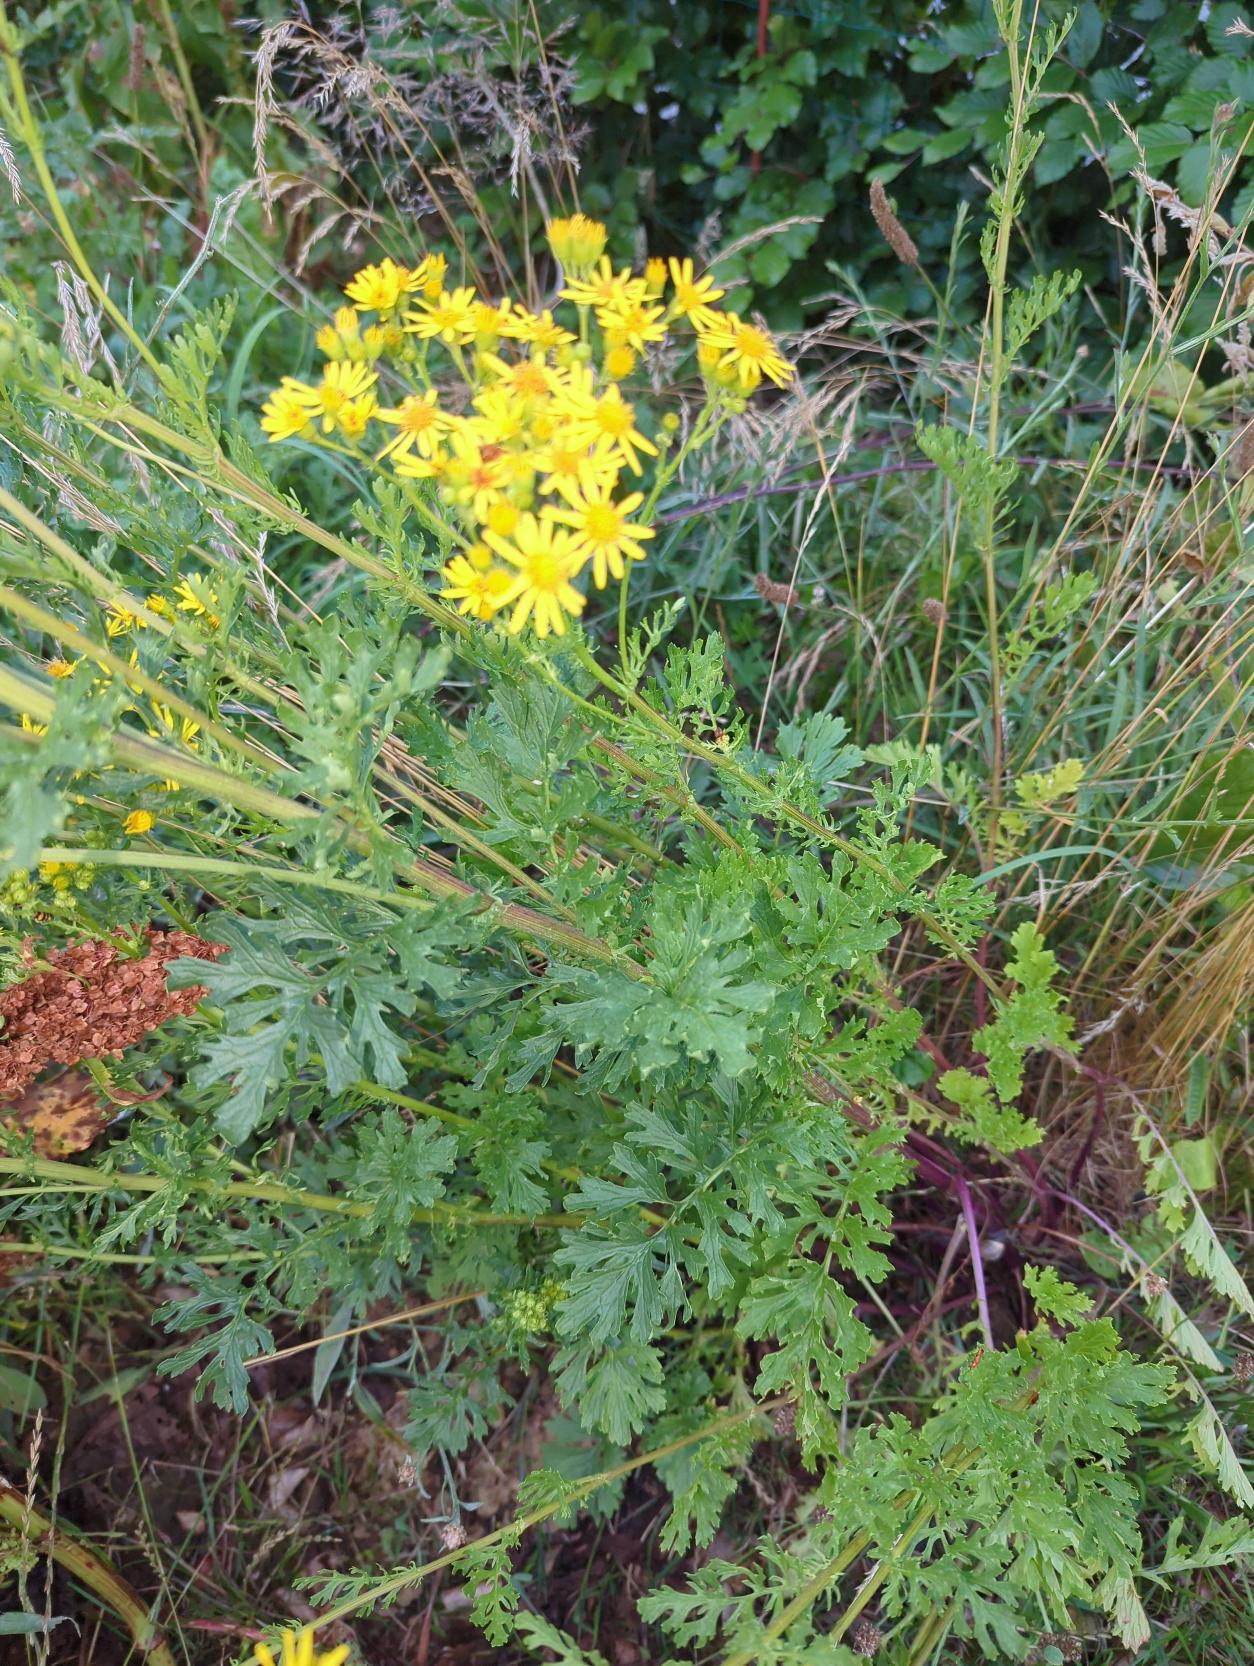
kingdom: Plantae
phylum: Tracheophyta
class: Magnoliopsida
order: Asterales
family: Asteraceae
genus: Jacobaea
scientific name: Jacobaea vulgaris
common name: Eng-brandbæger
